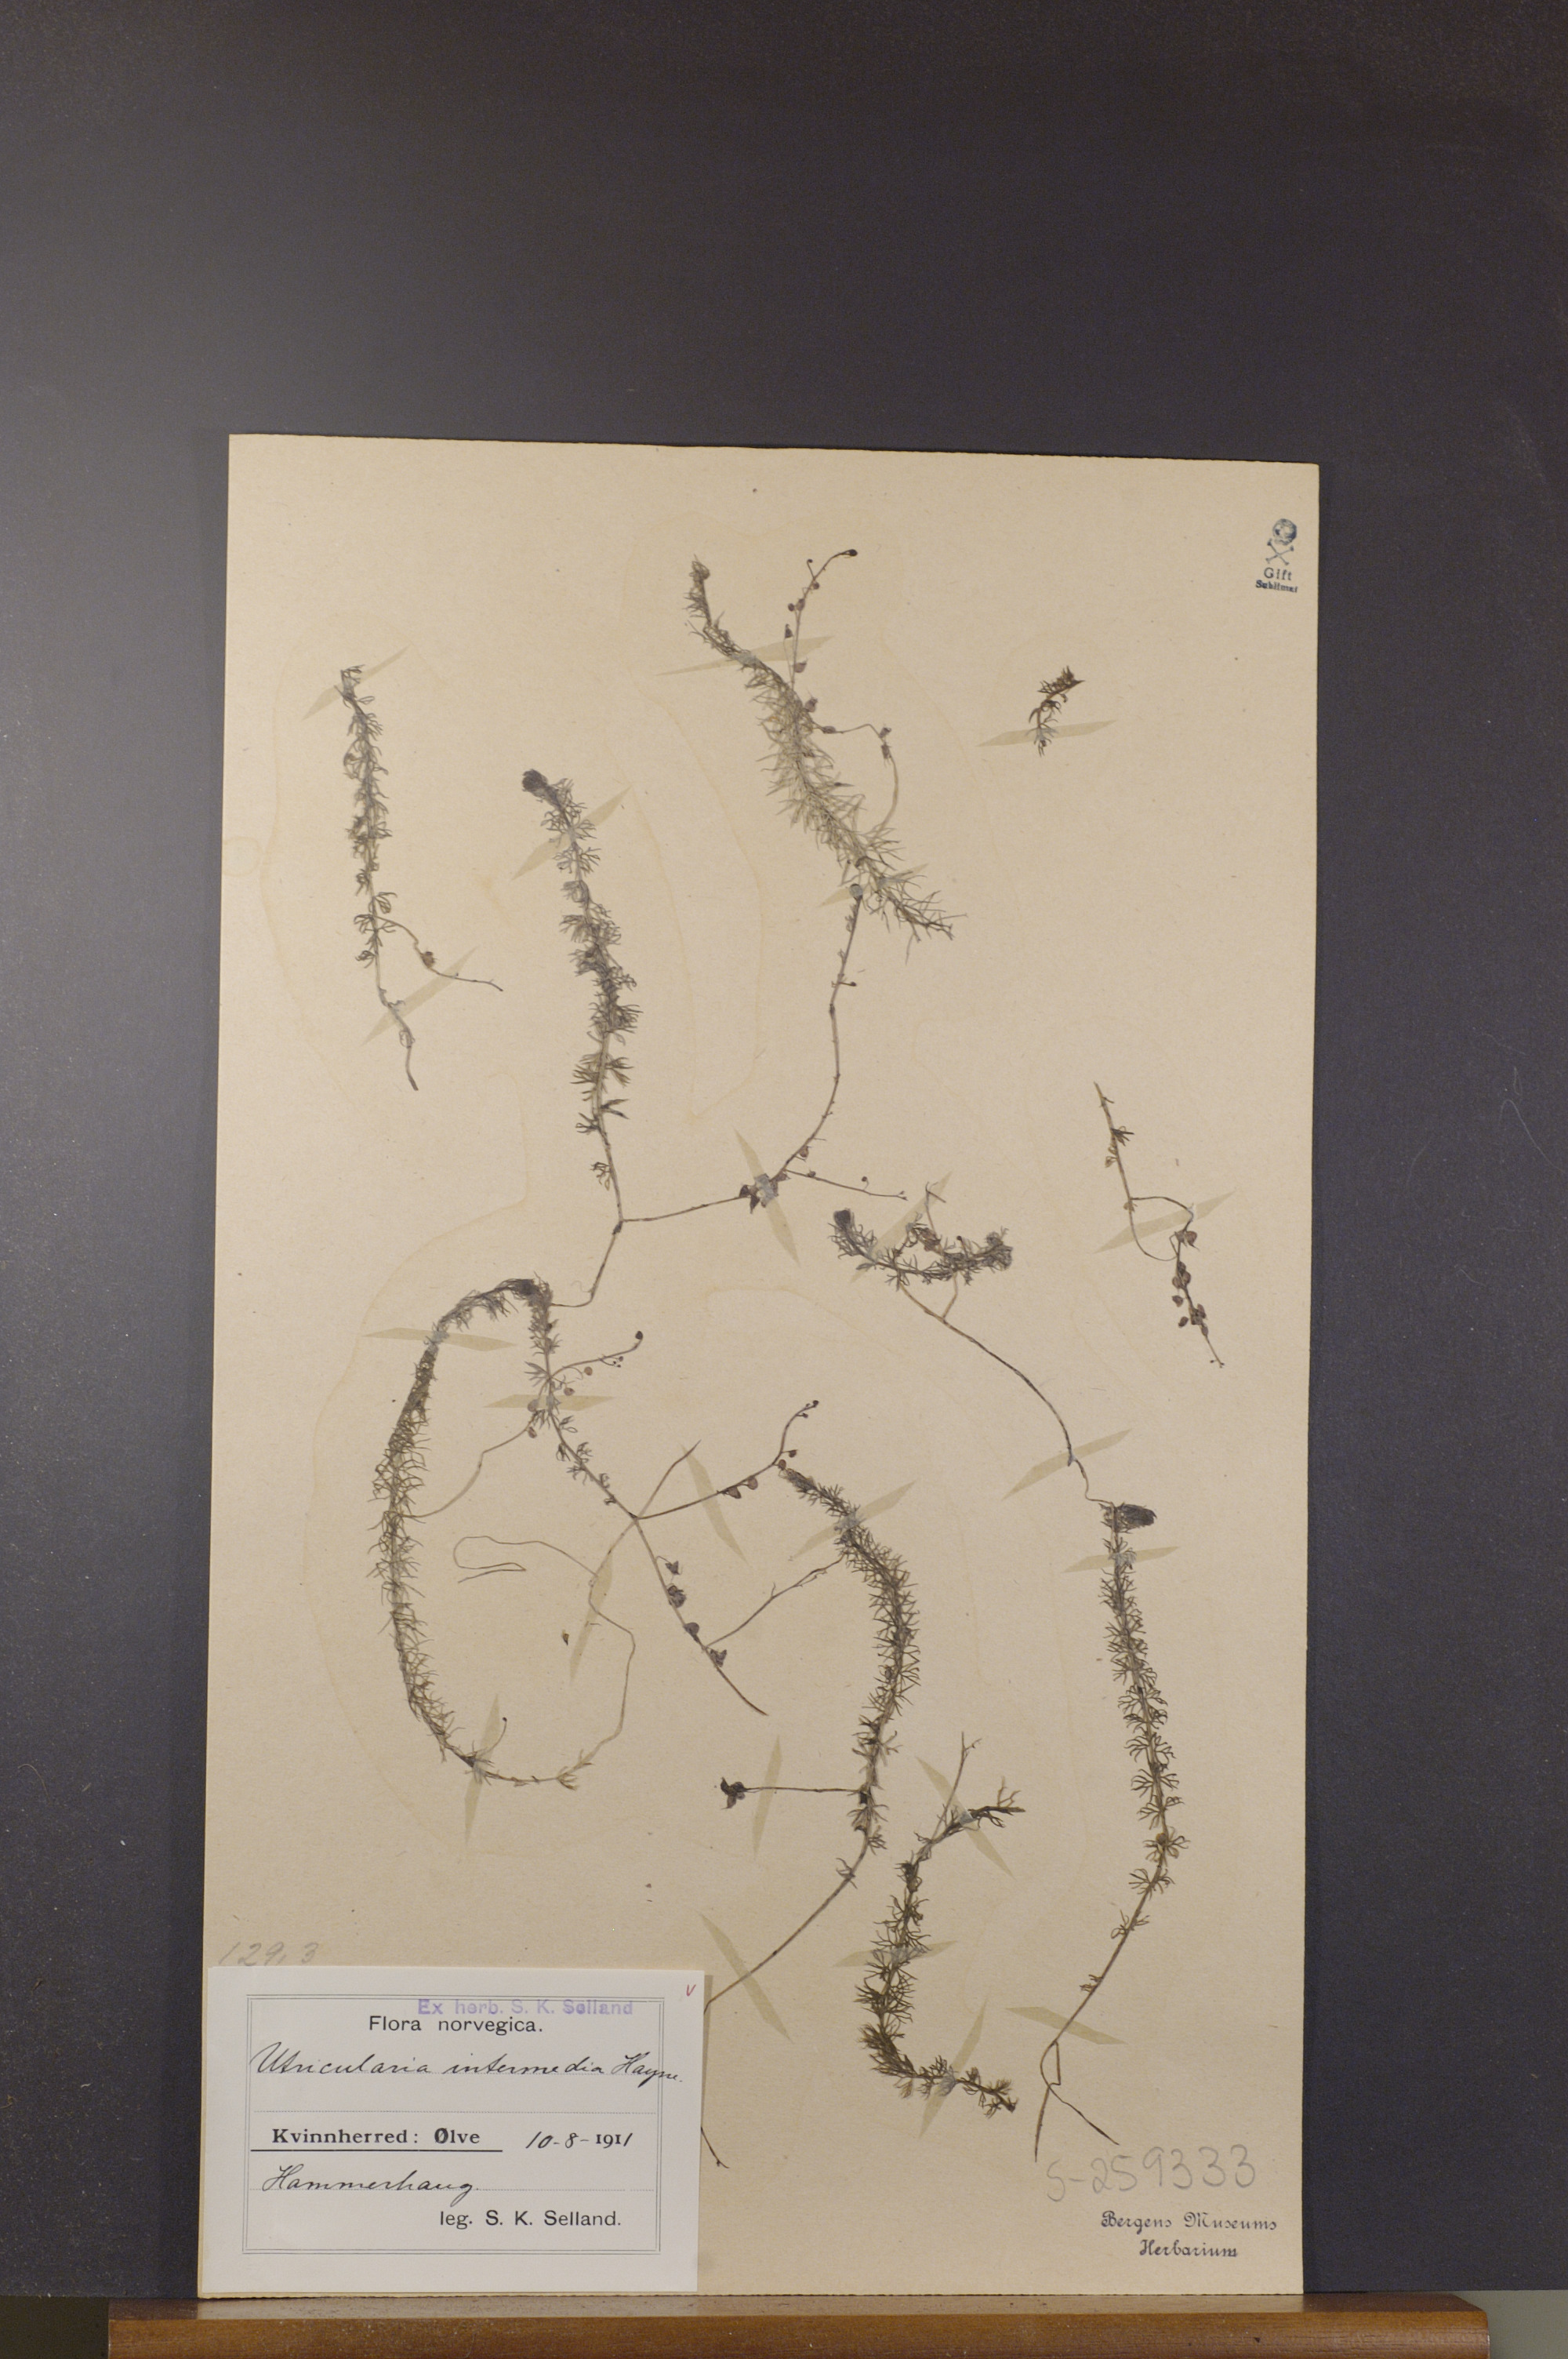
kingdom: Plantae
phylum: Tracheophyta
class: Magnoliopsida
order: Lamiales
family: Lentibulariaceae
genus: Utricularia
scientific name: Utricularia intermedia
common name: Intermediate bladderwort
